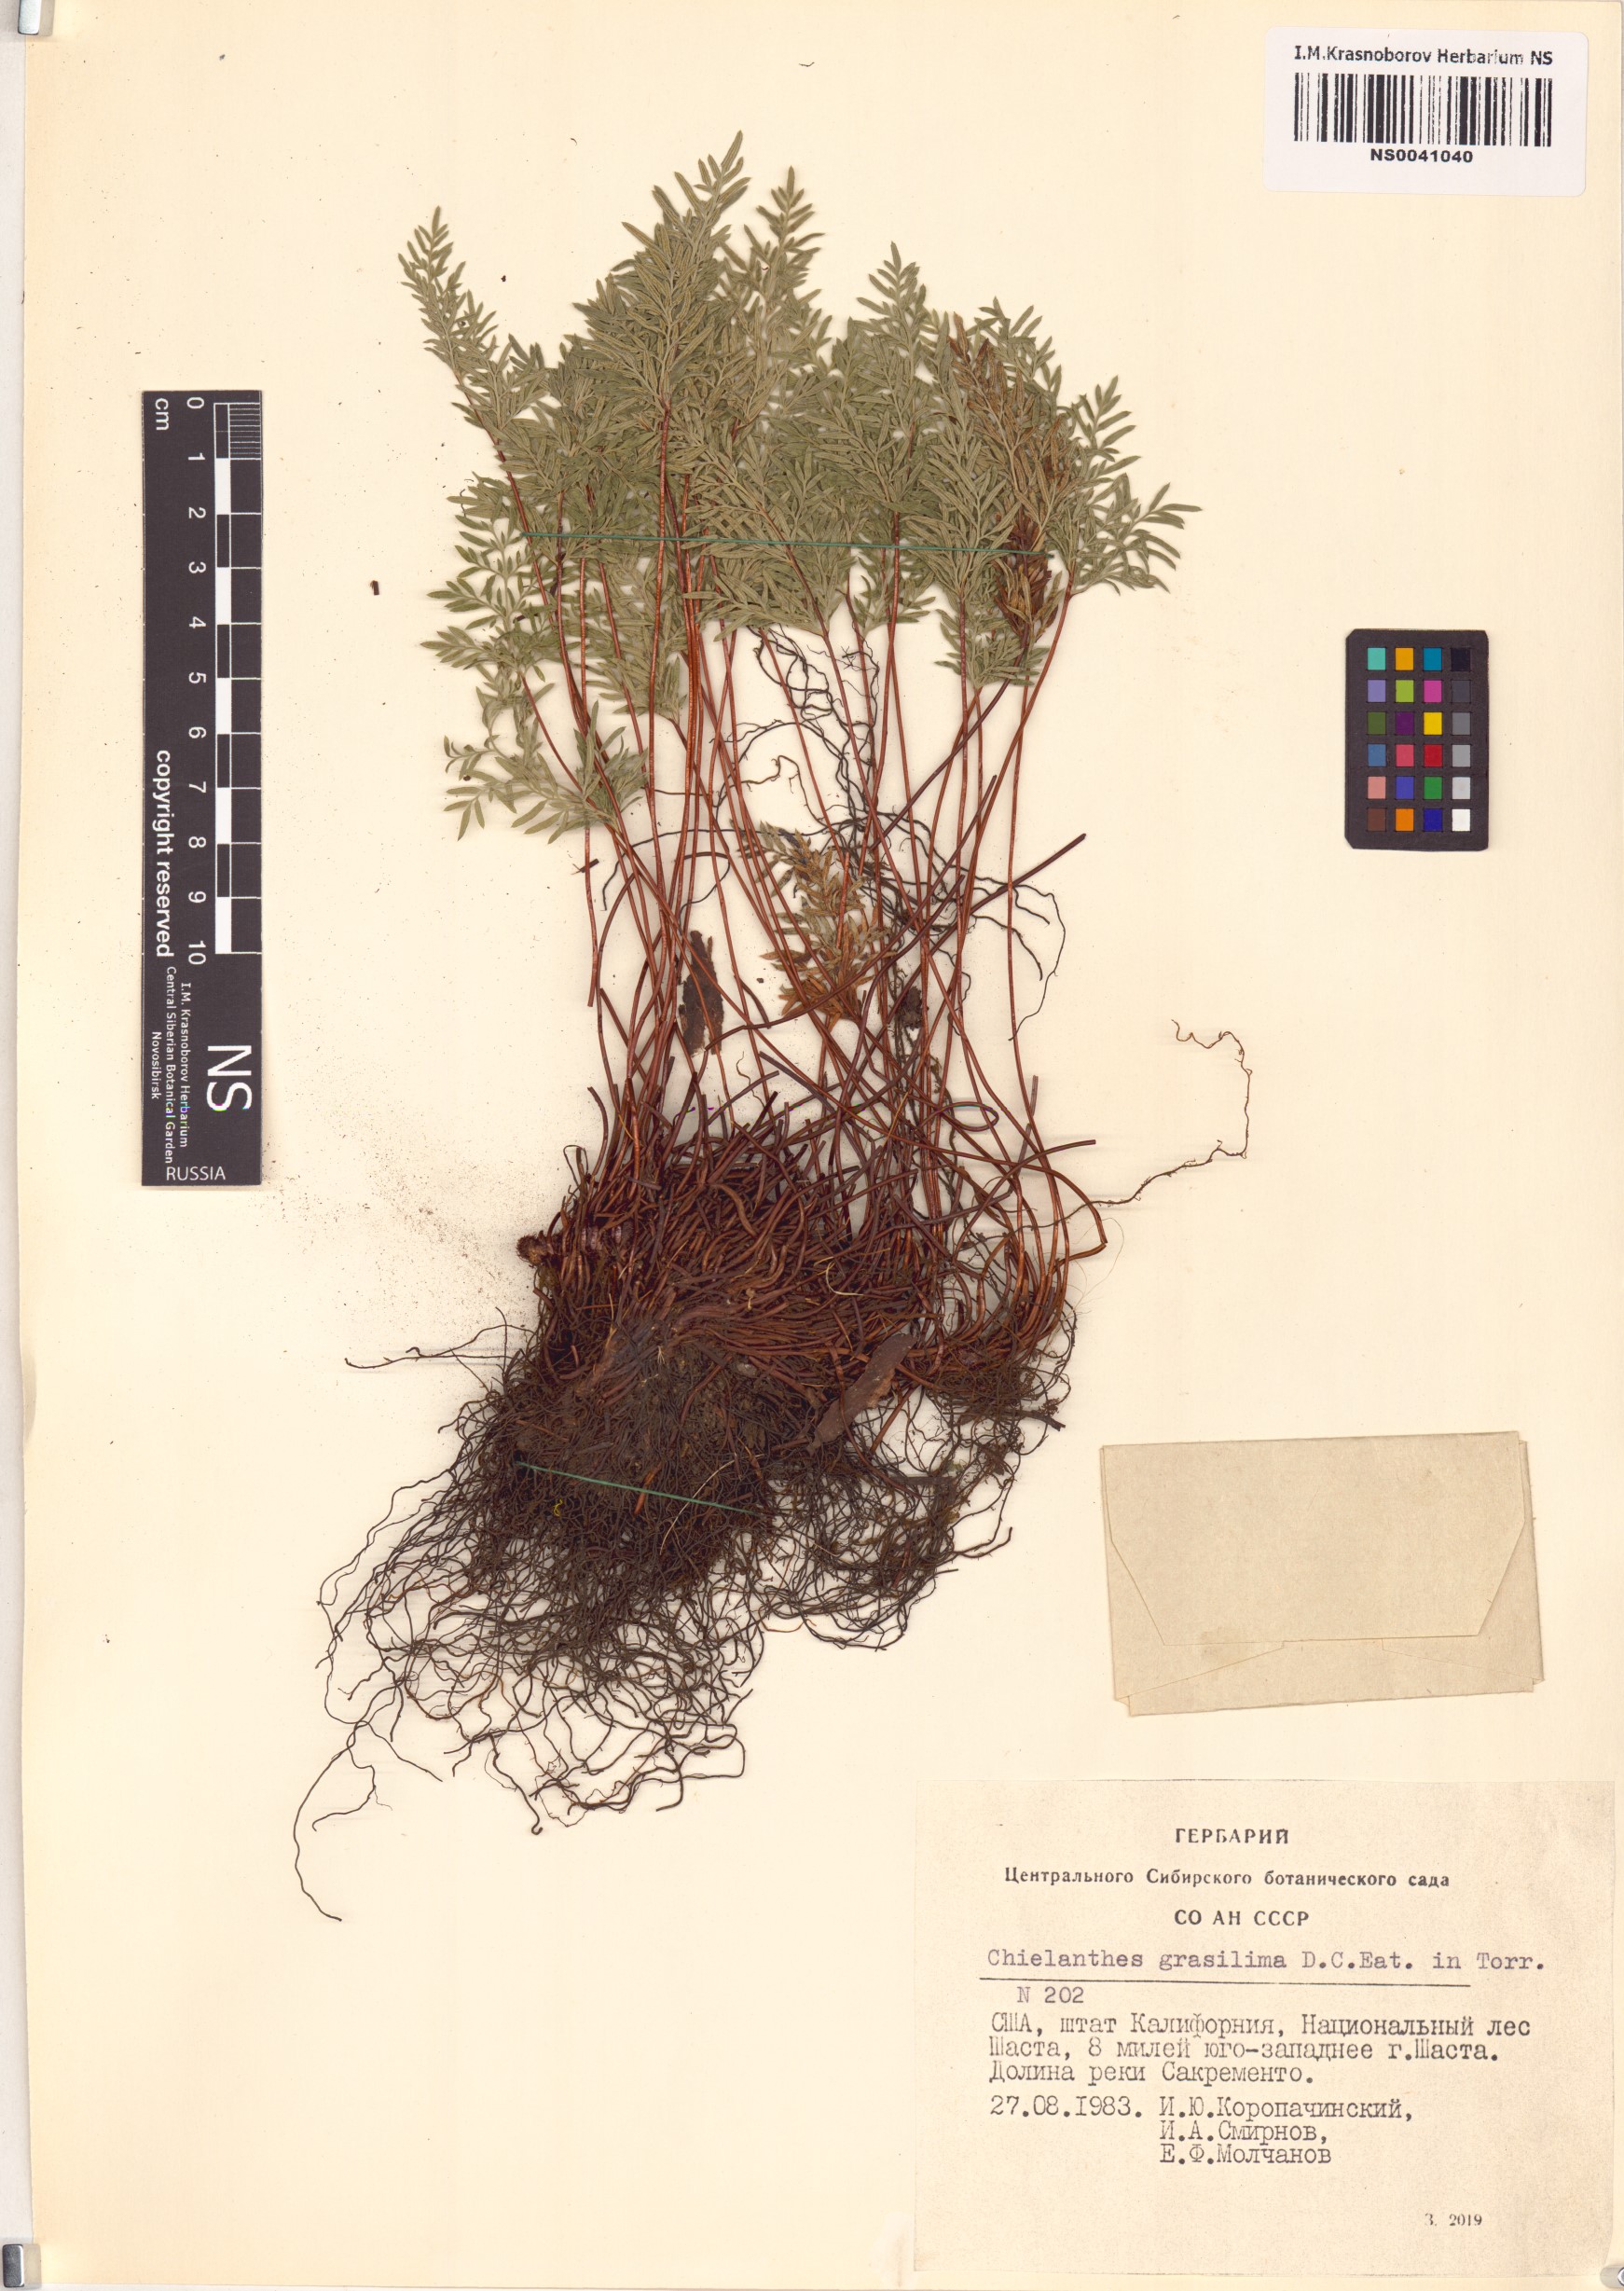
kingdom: Plantae
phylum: Tracheophyta
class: Polypodiopsida
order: Polypodiales
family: Pteridaceae
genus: Myriopteris
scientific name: Myriopteris gracillima
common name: Lace fern
